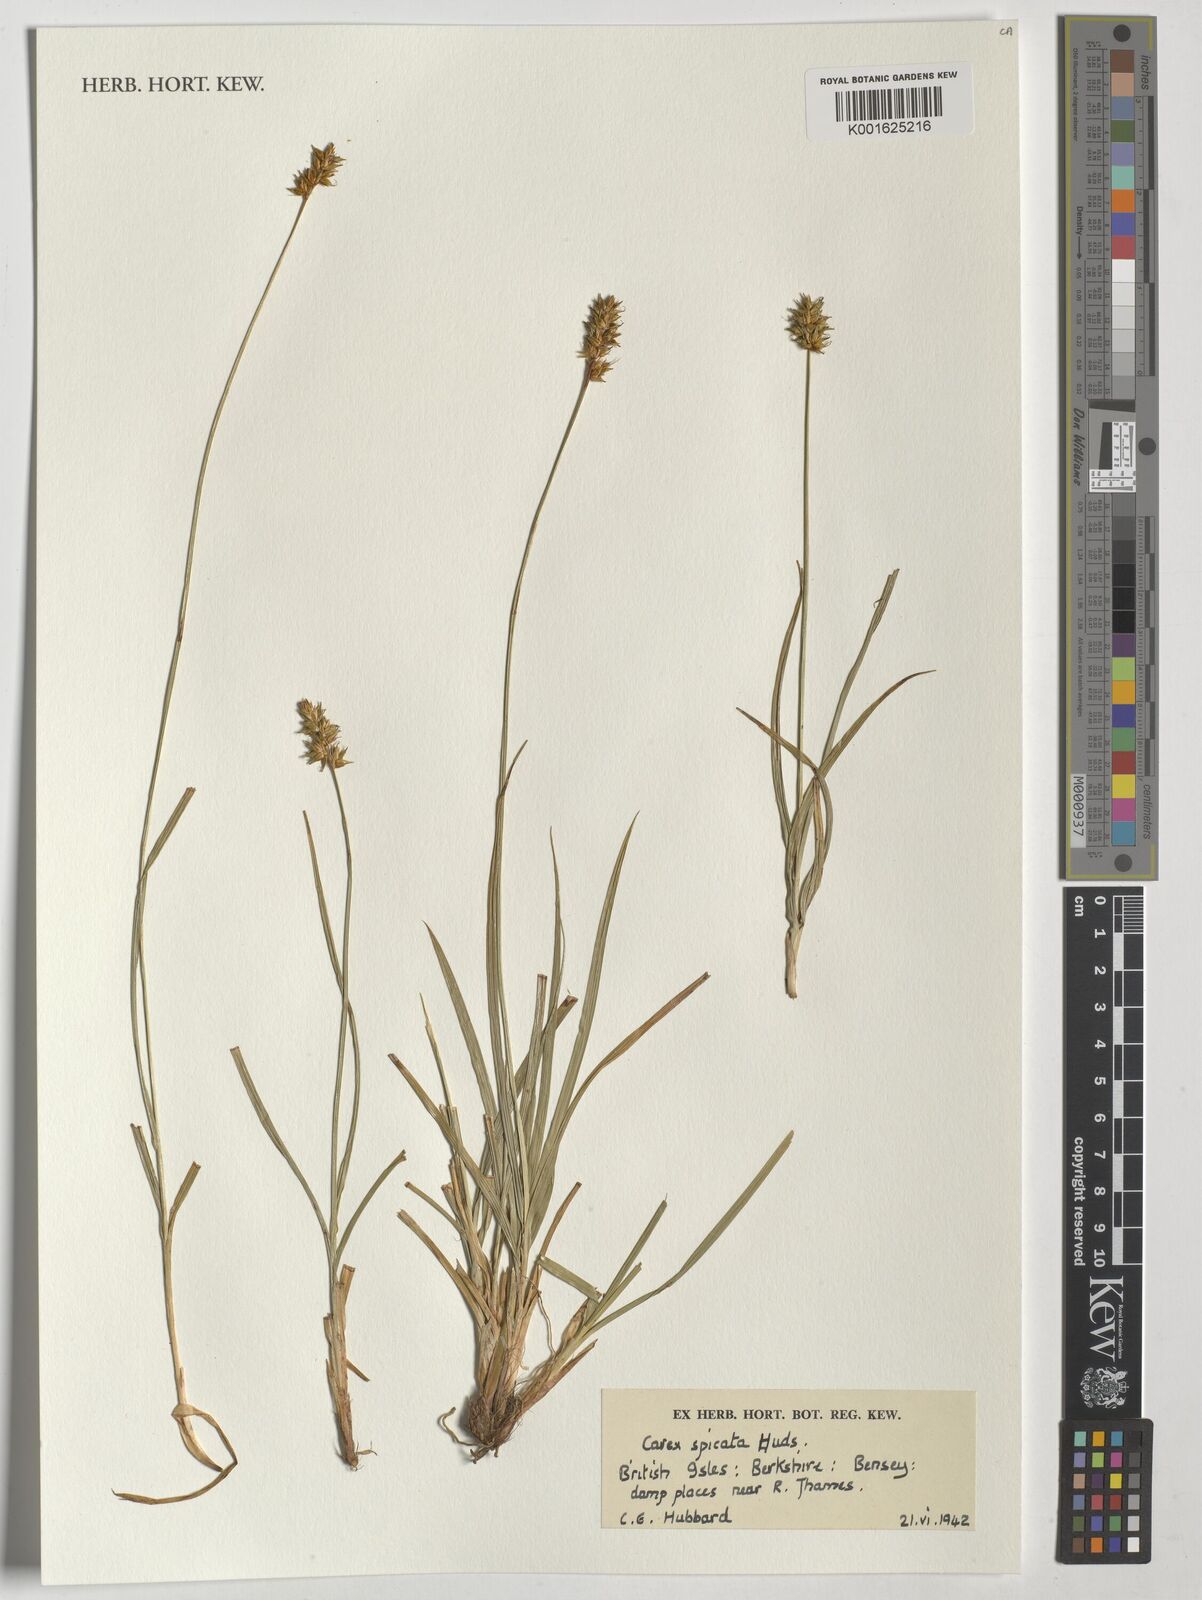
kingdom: Plantae
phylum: Tracheophyta
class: Liliopsida
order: Poales
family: Cyperaceae
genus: Carex
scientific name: Carex spicata
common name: Spiked sedge
